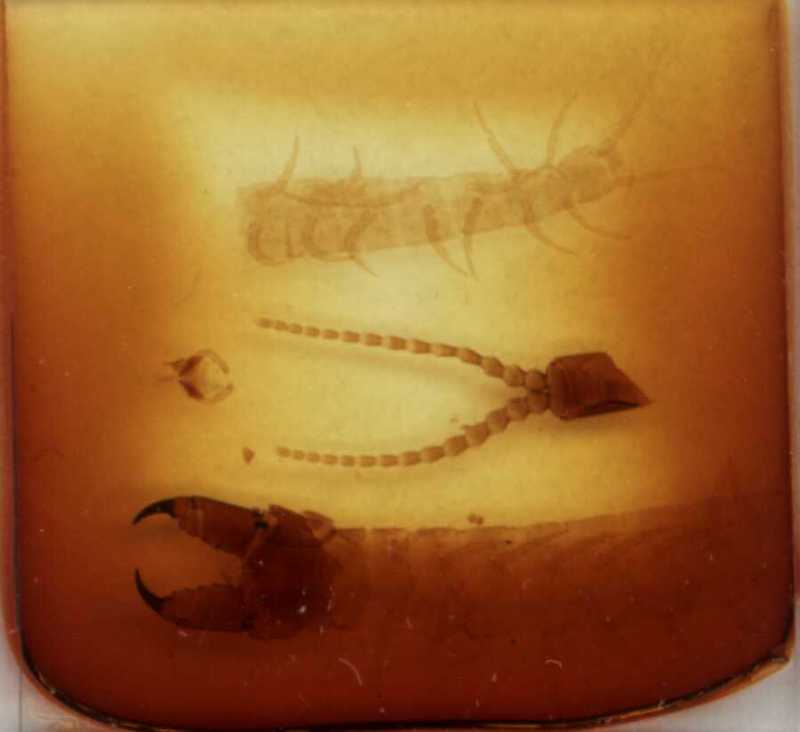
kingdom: Animalia
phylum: Arthropoda
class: Chilopoda
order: Geophilomorpha
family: Mecistocephalidae
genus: Mecistocephalus
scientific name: Mecistocephalus mauritianus
